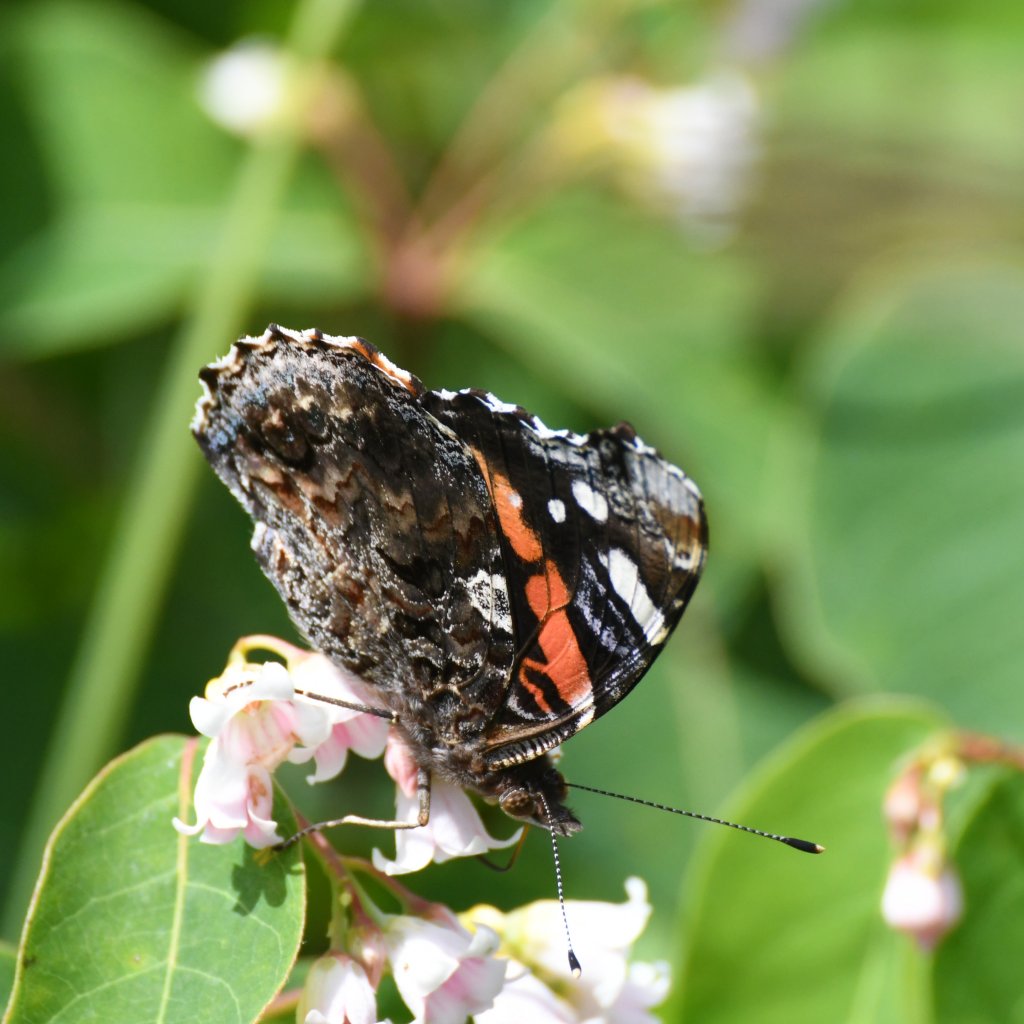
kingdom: Animalia
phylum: Arthropoda
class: Insecta
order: Lepidoptera
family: Nymphalidae
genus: Vanessa
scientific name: Vanessa atalanta
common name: Red Admiral
